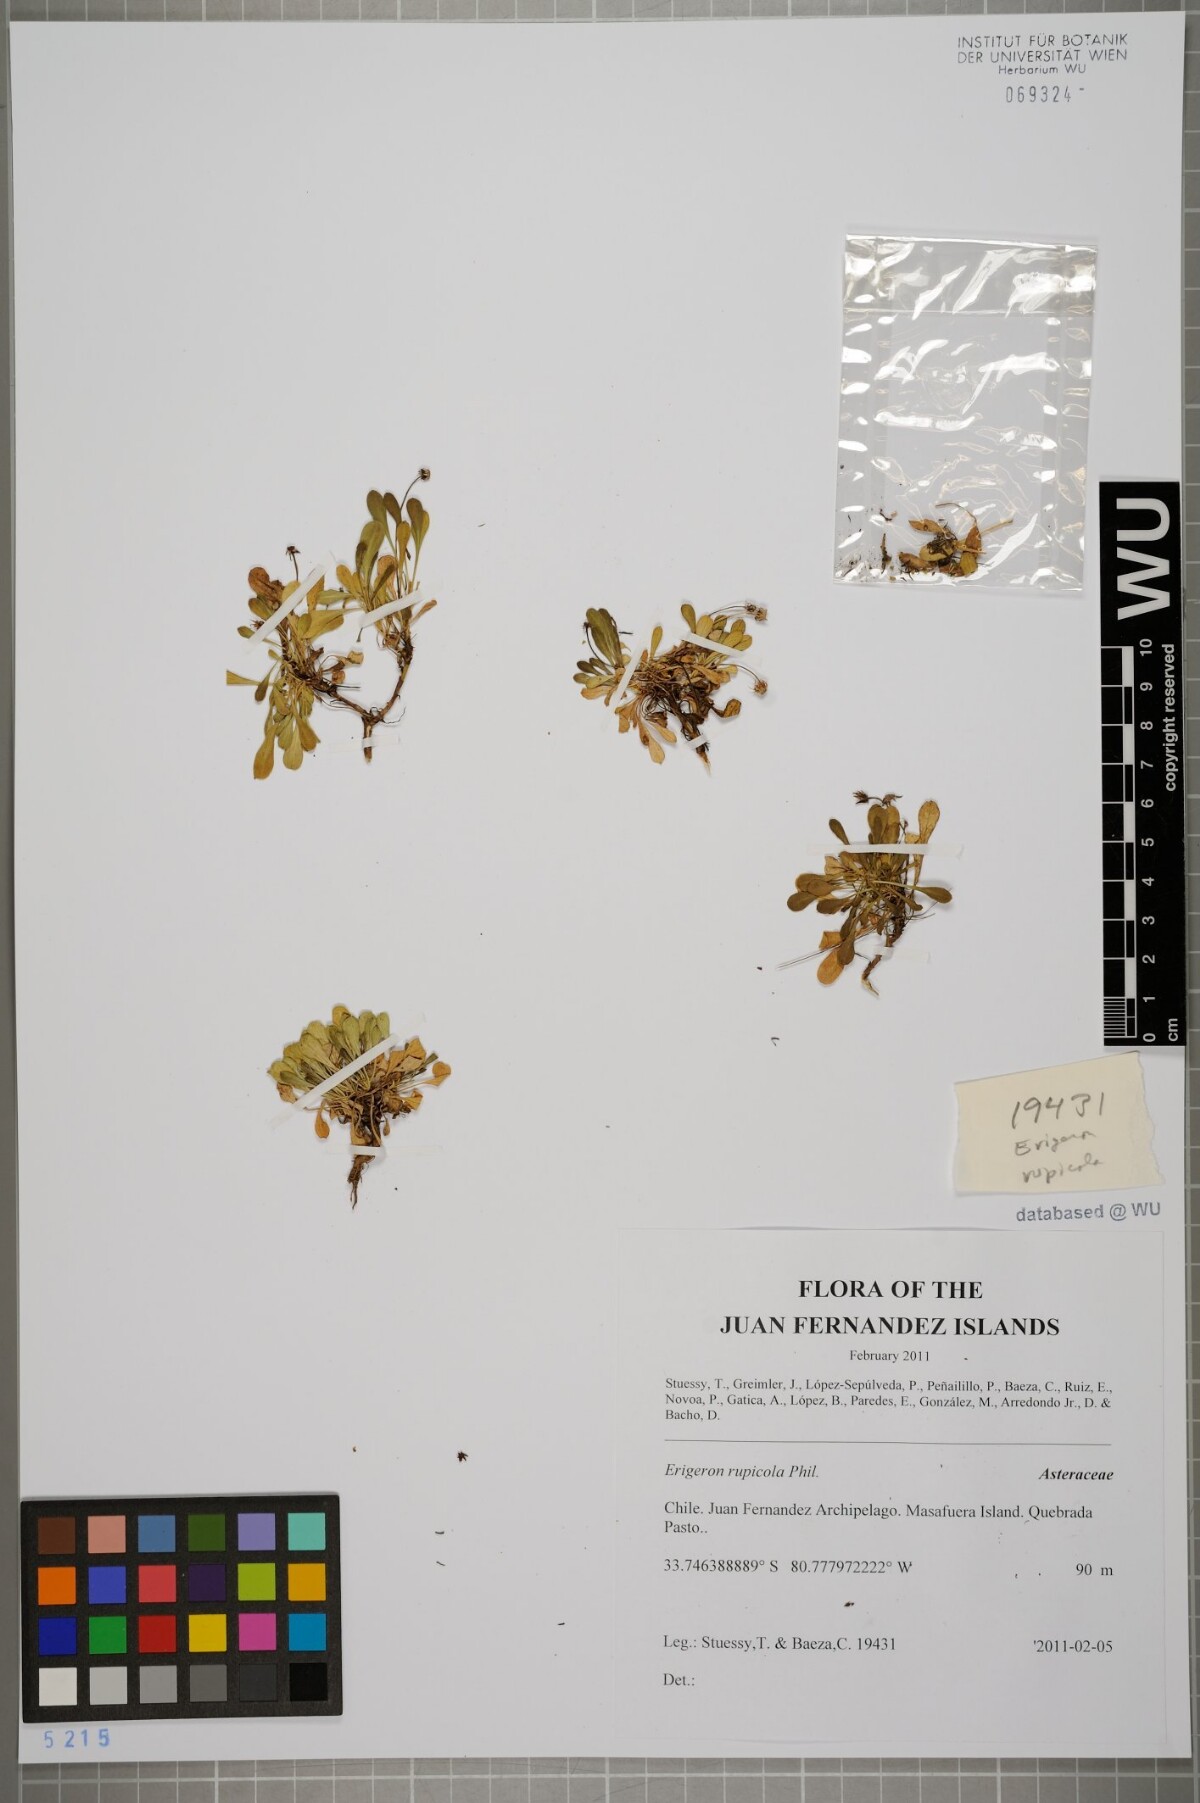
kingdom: Plantae
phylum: Tracheophyta
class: Magnoliopsida
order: Asterales
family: Asteraceae
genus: Erigeron
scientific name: Erigeron rupicola
